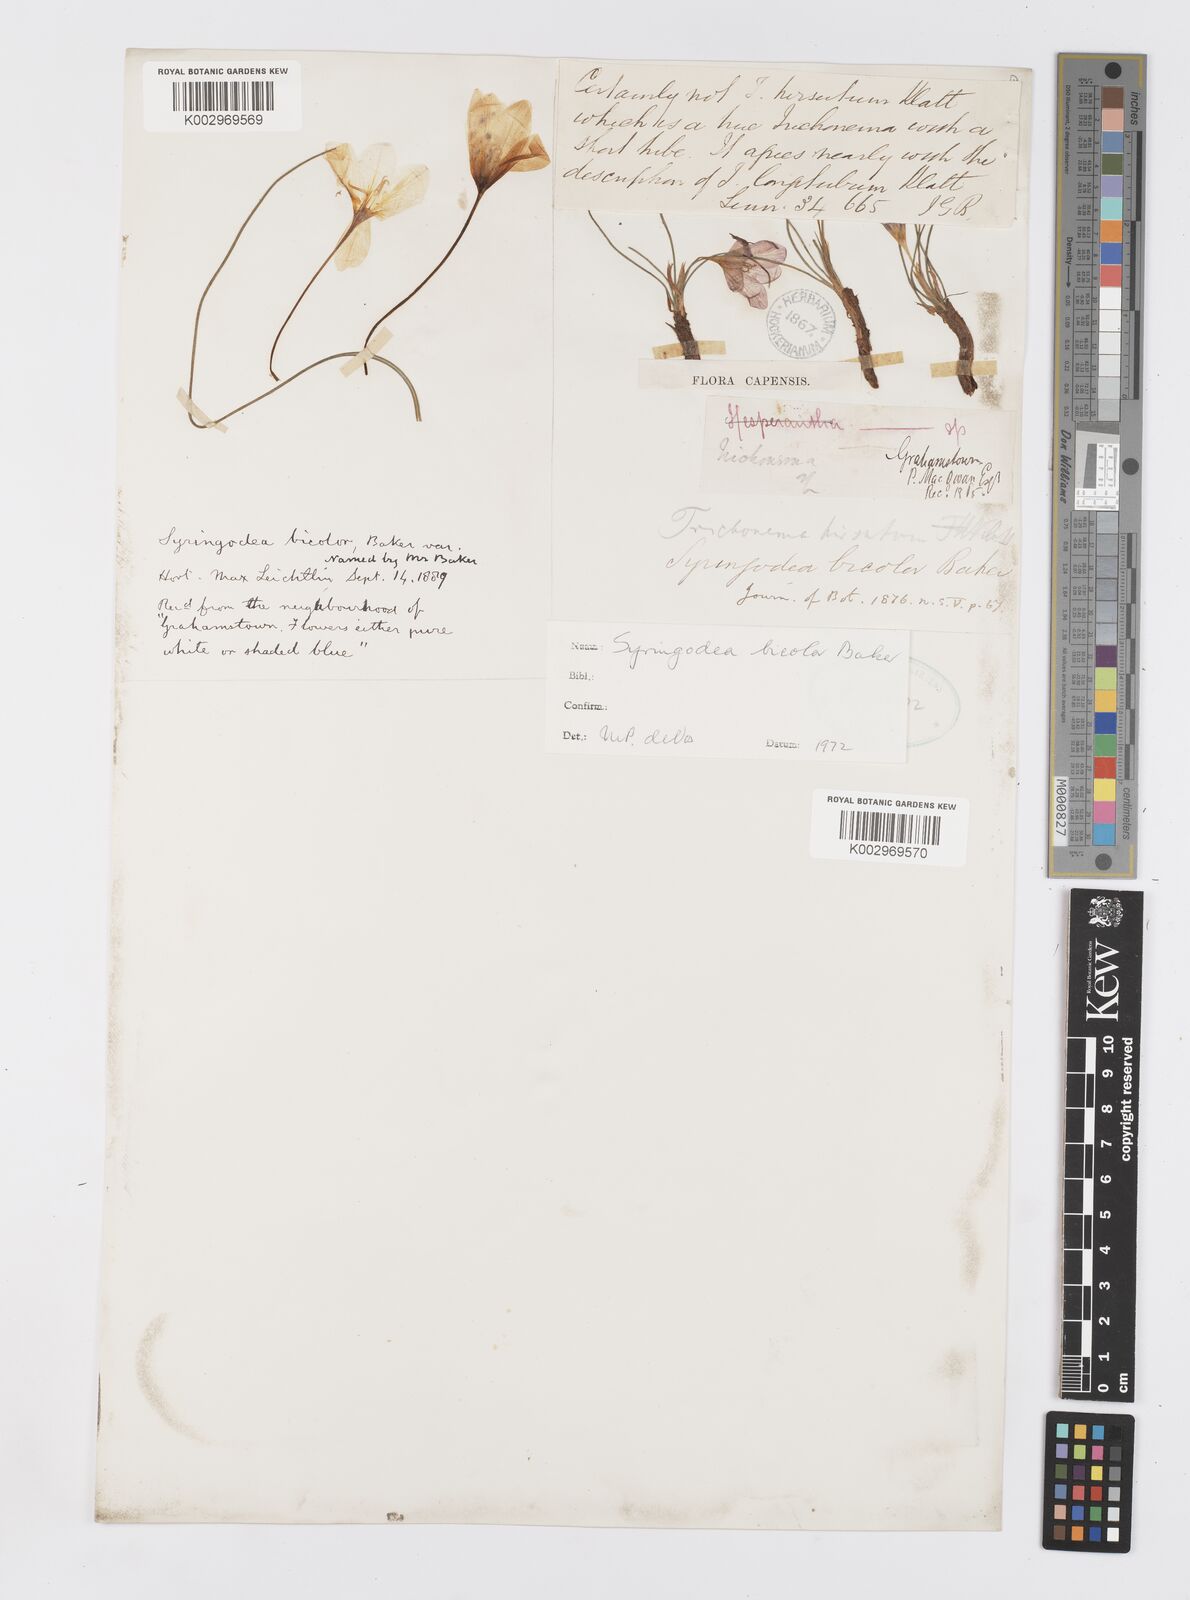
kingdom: Plantae
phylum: Tracheophyta
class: Liliopsida
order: Asparagales
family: Iridaceae
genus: Syringodea
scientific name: Syringodea bifucata
